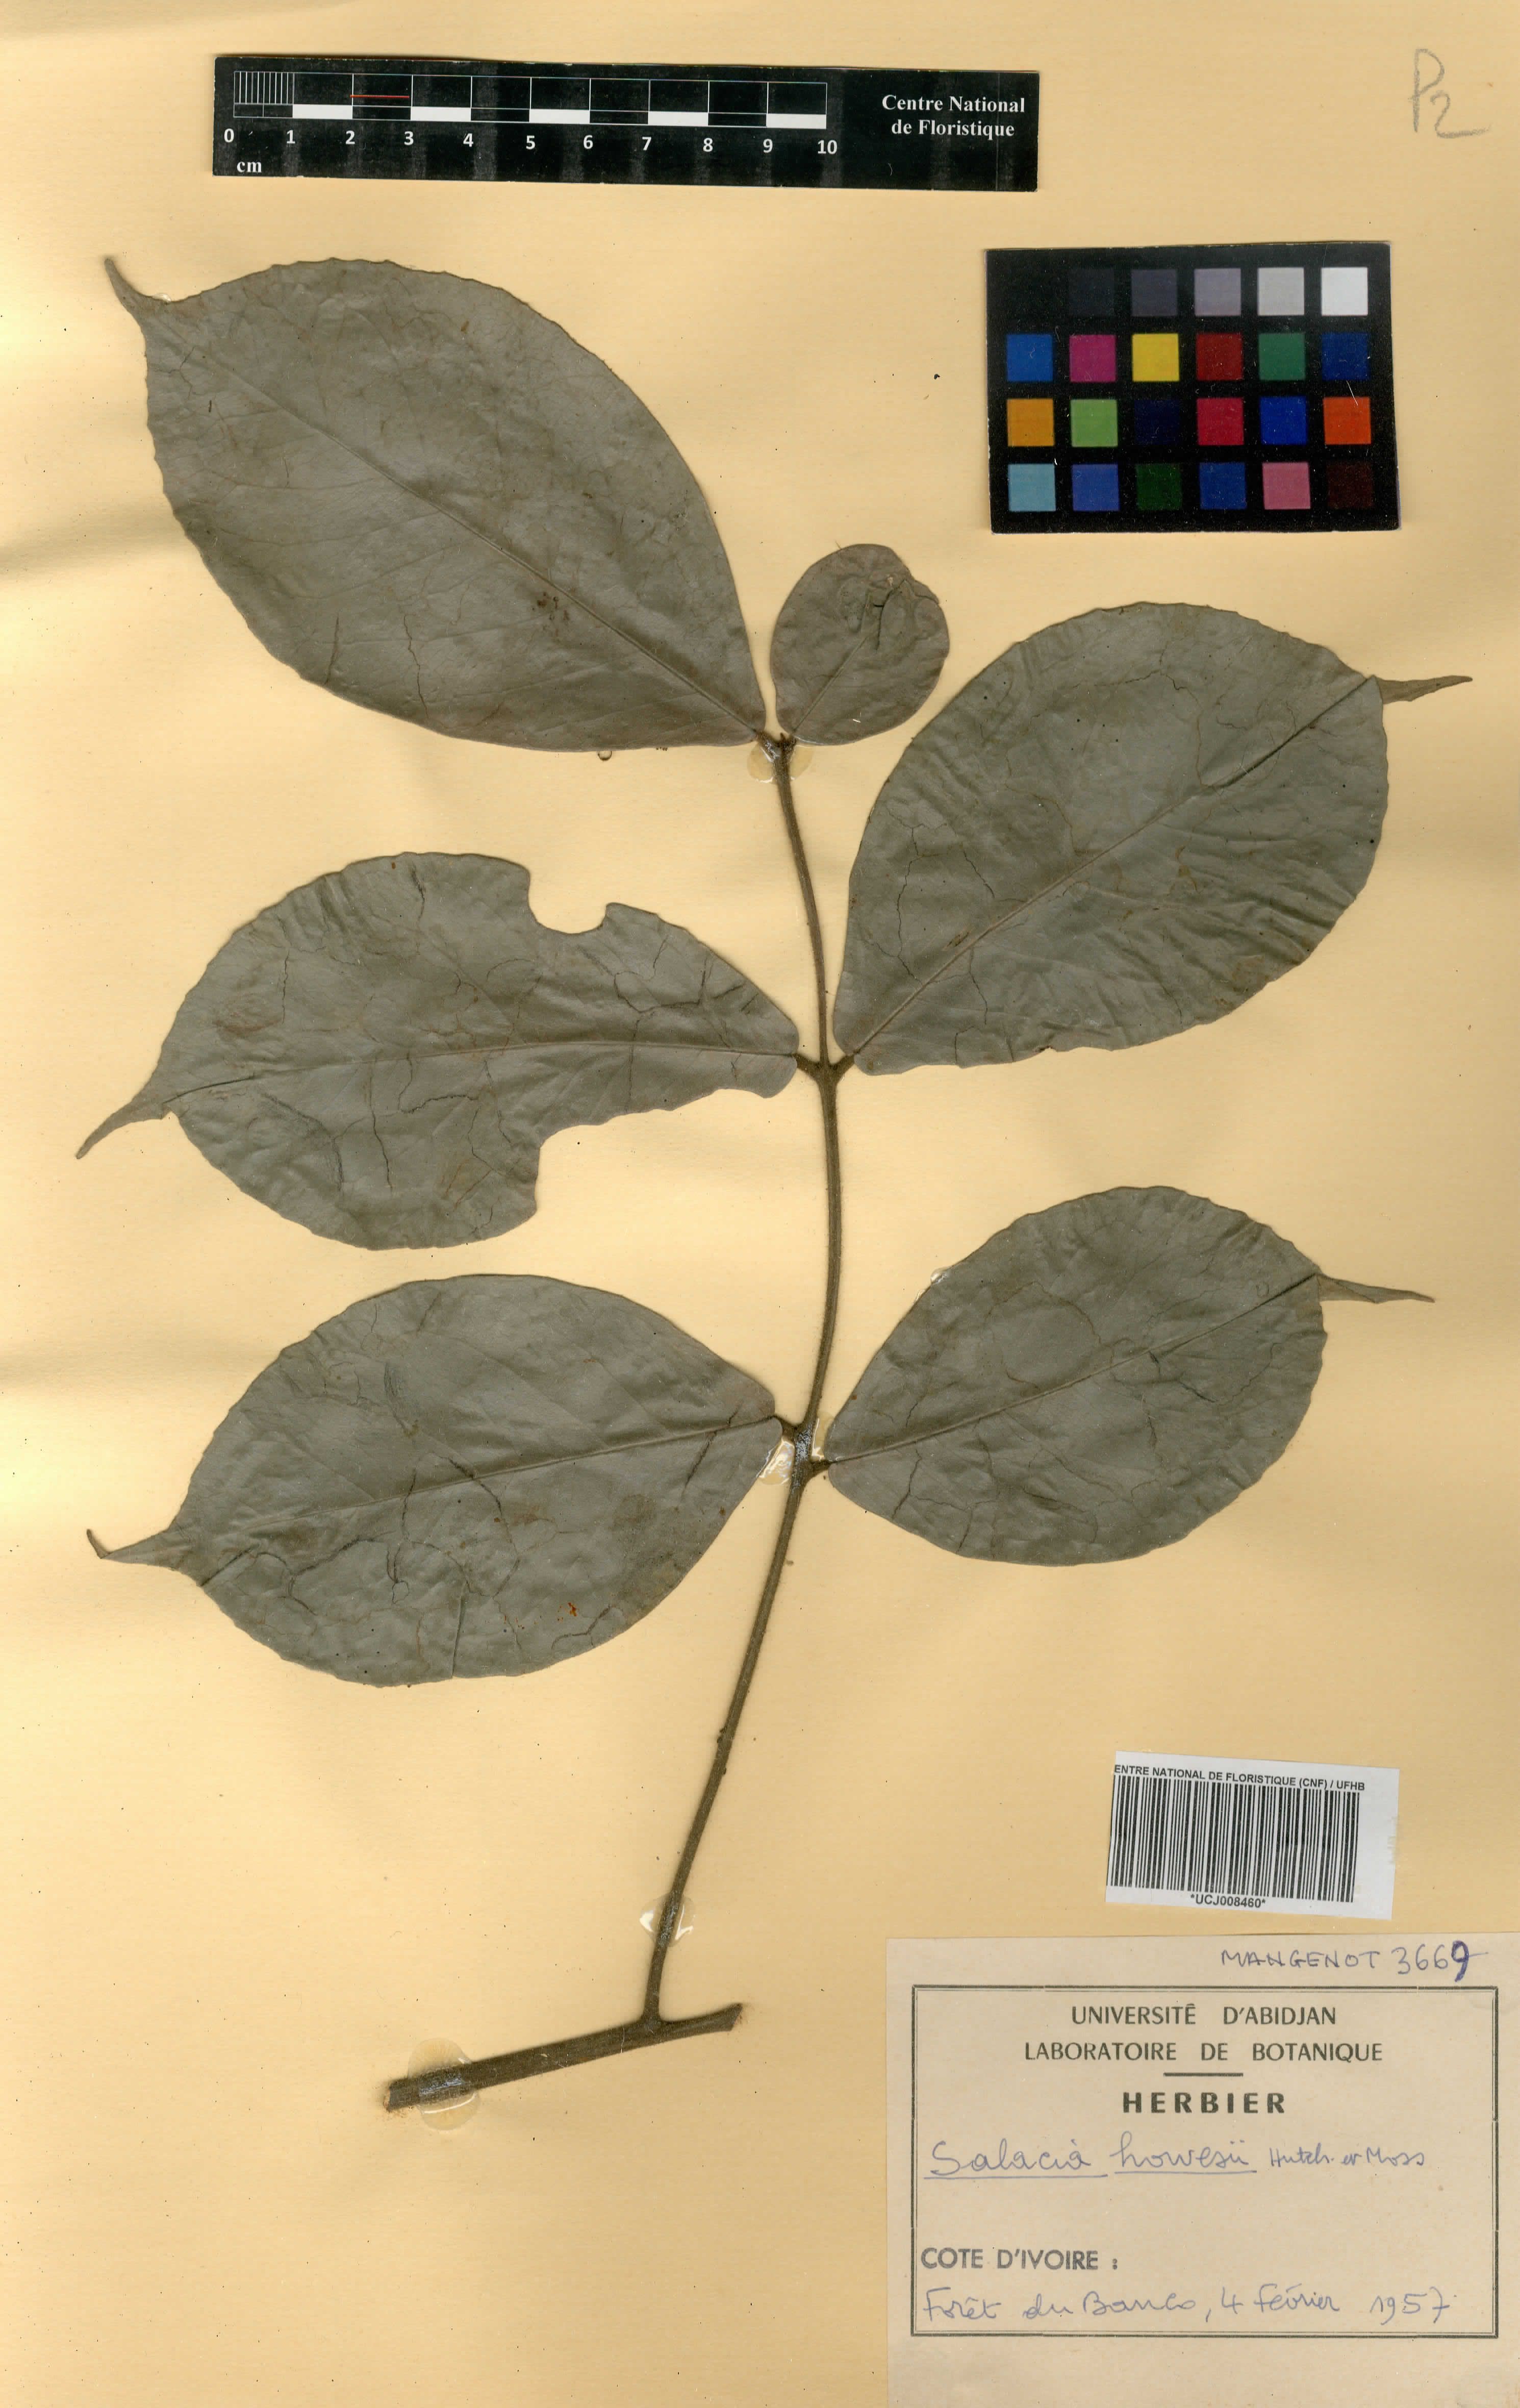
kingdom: Plantae
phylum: Tracheophyta
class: Magnoliopsida
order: Celastrales
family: Celastraceae
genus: Salacia
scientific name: Salacia howesii
